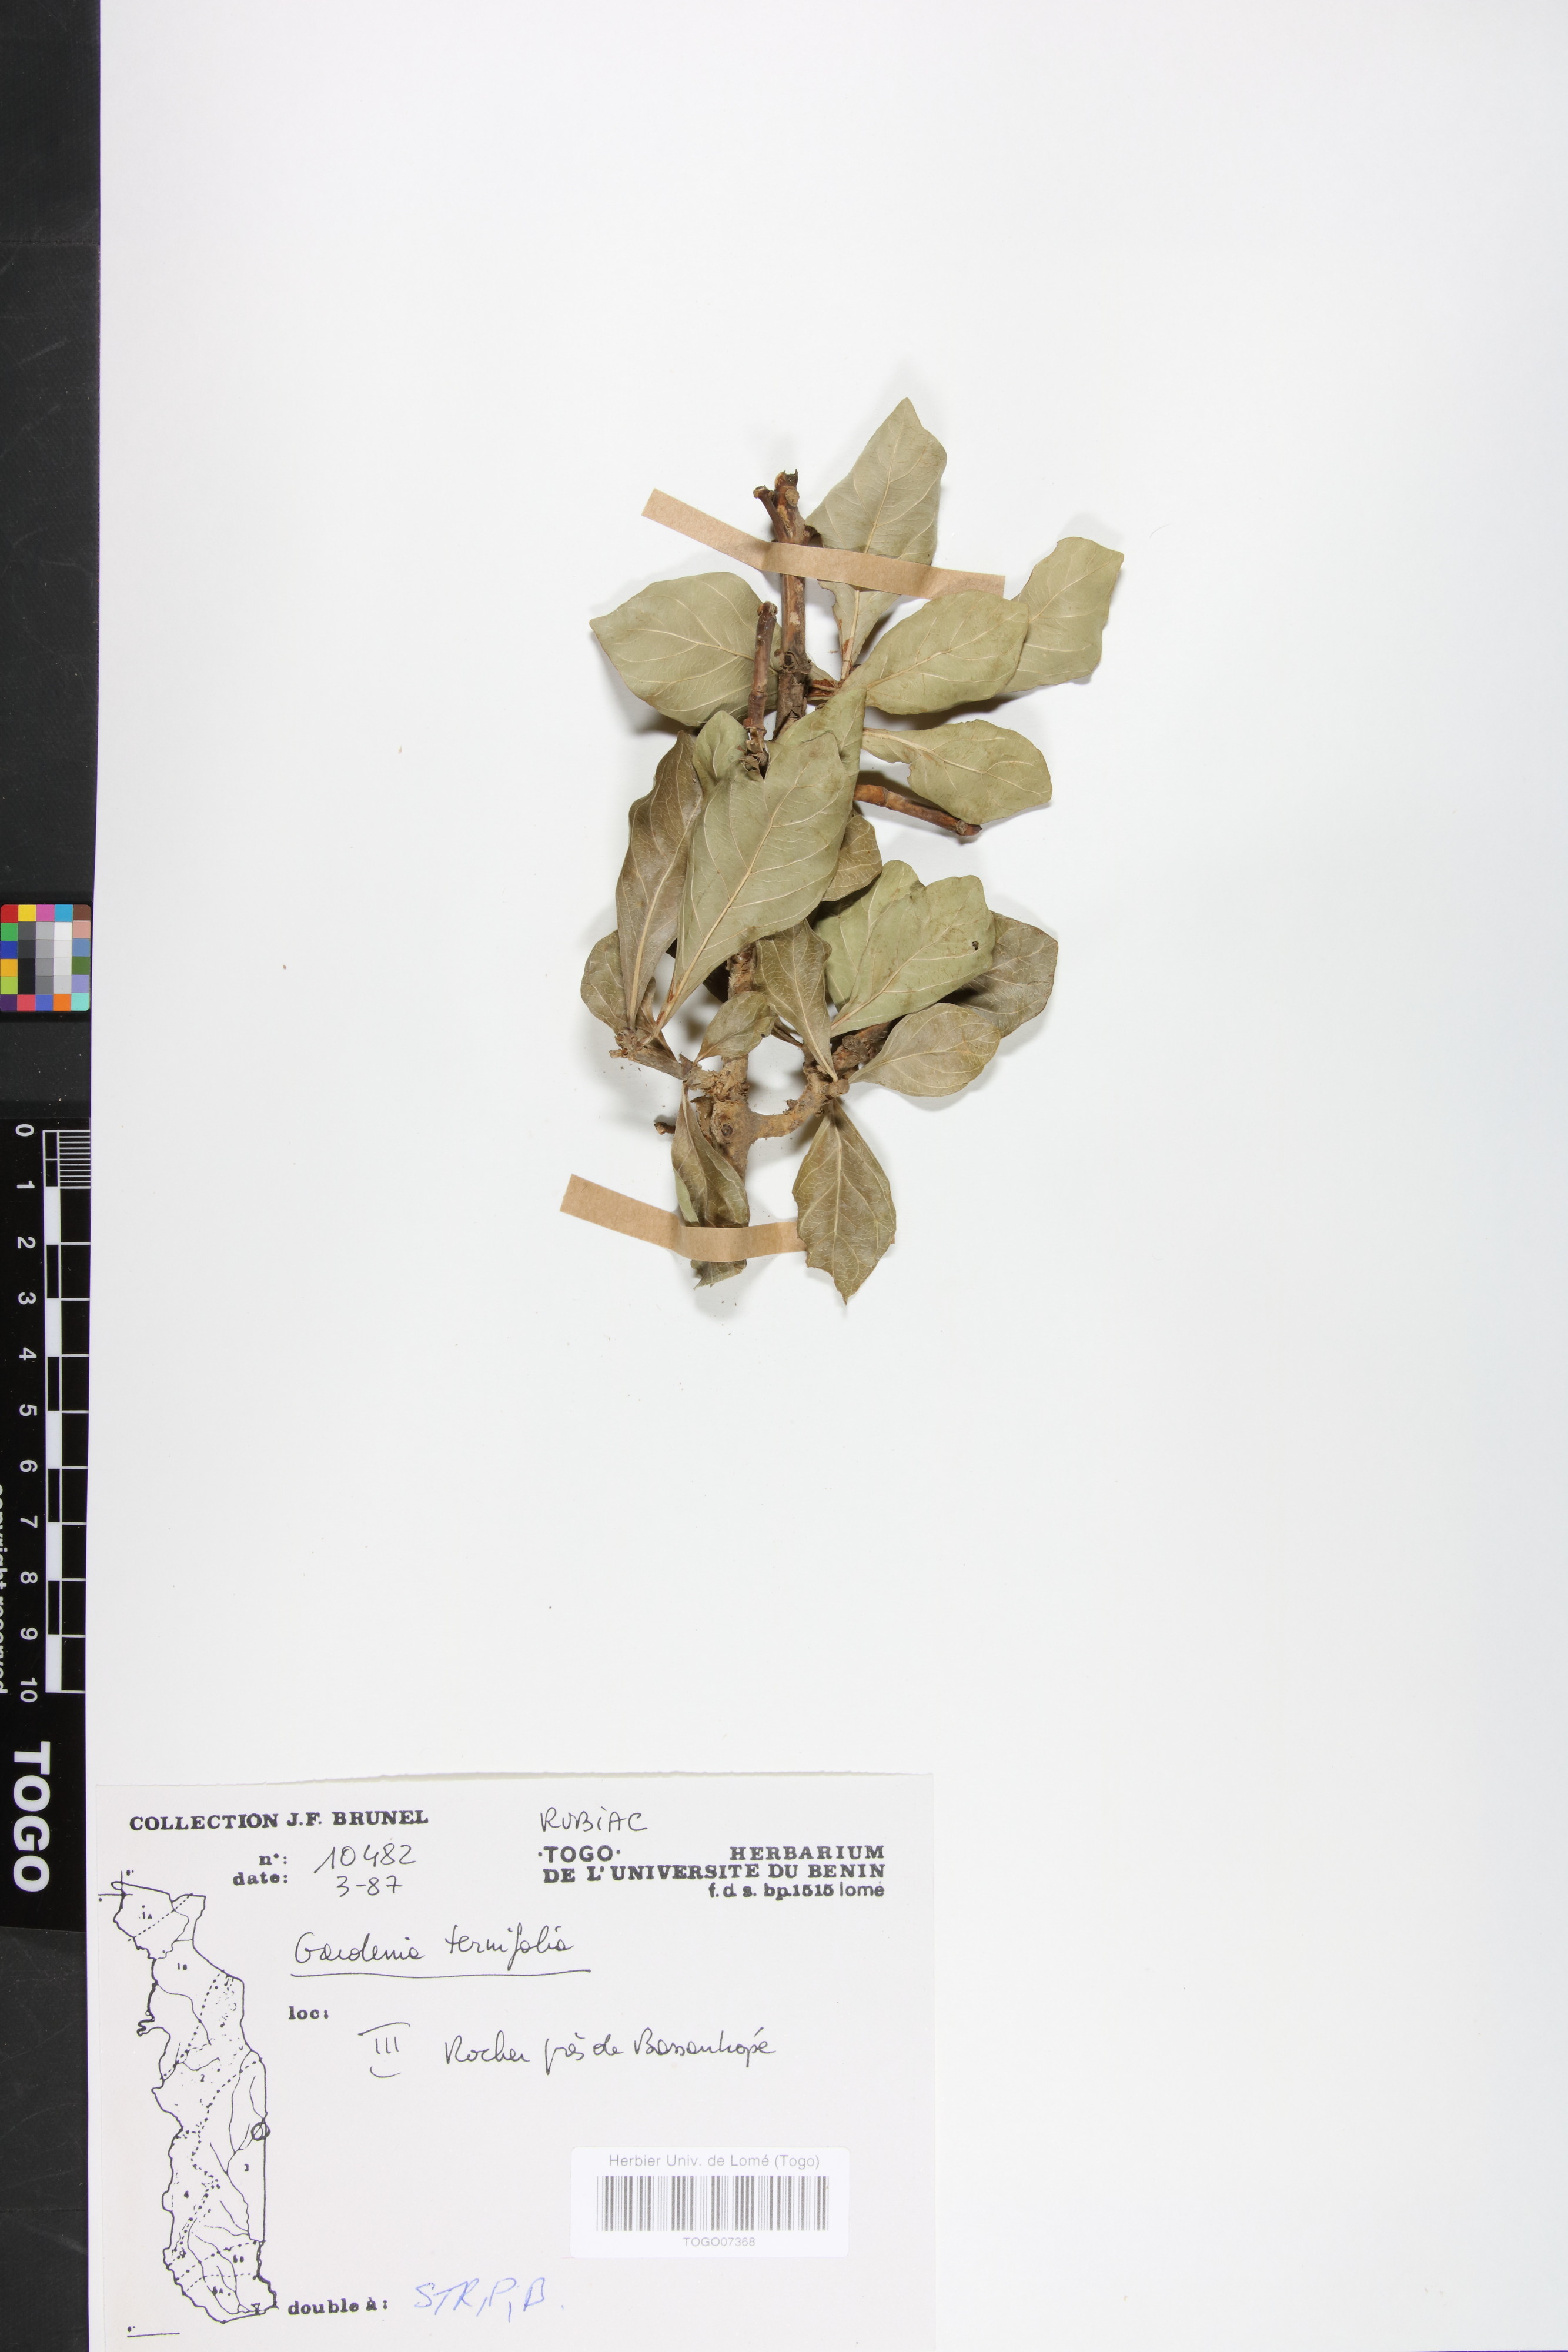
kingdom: Plantae
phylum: Tracheophyta
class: Magnoliopsida
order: Gentianales
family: Rubiaceae
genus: Gardenia
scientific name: Gardenia ternifolia
